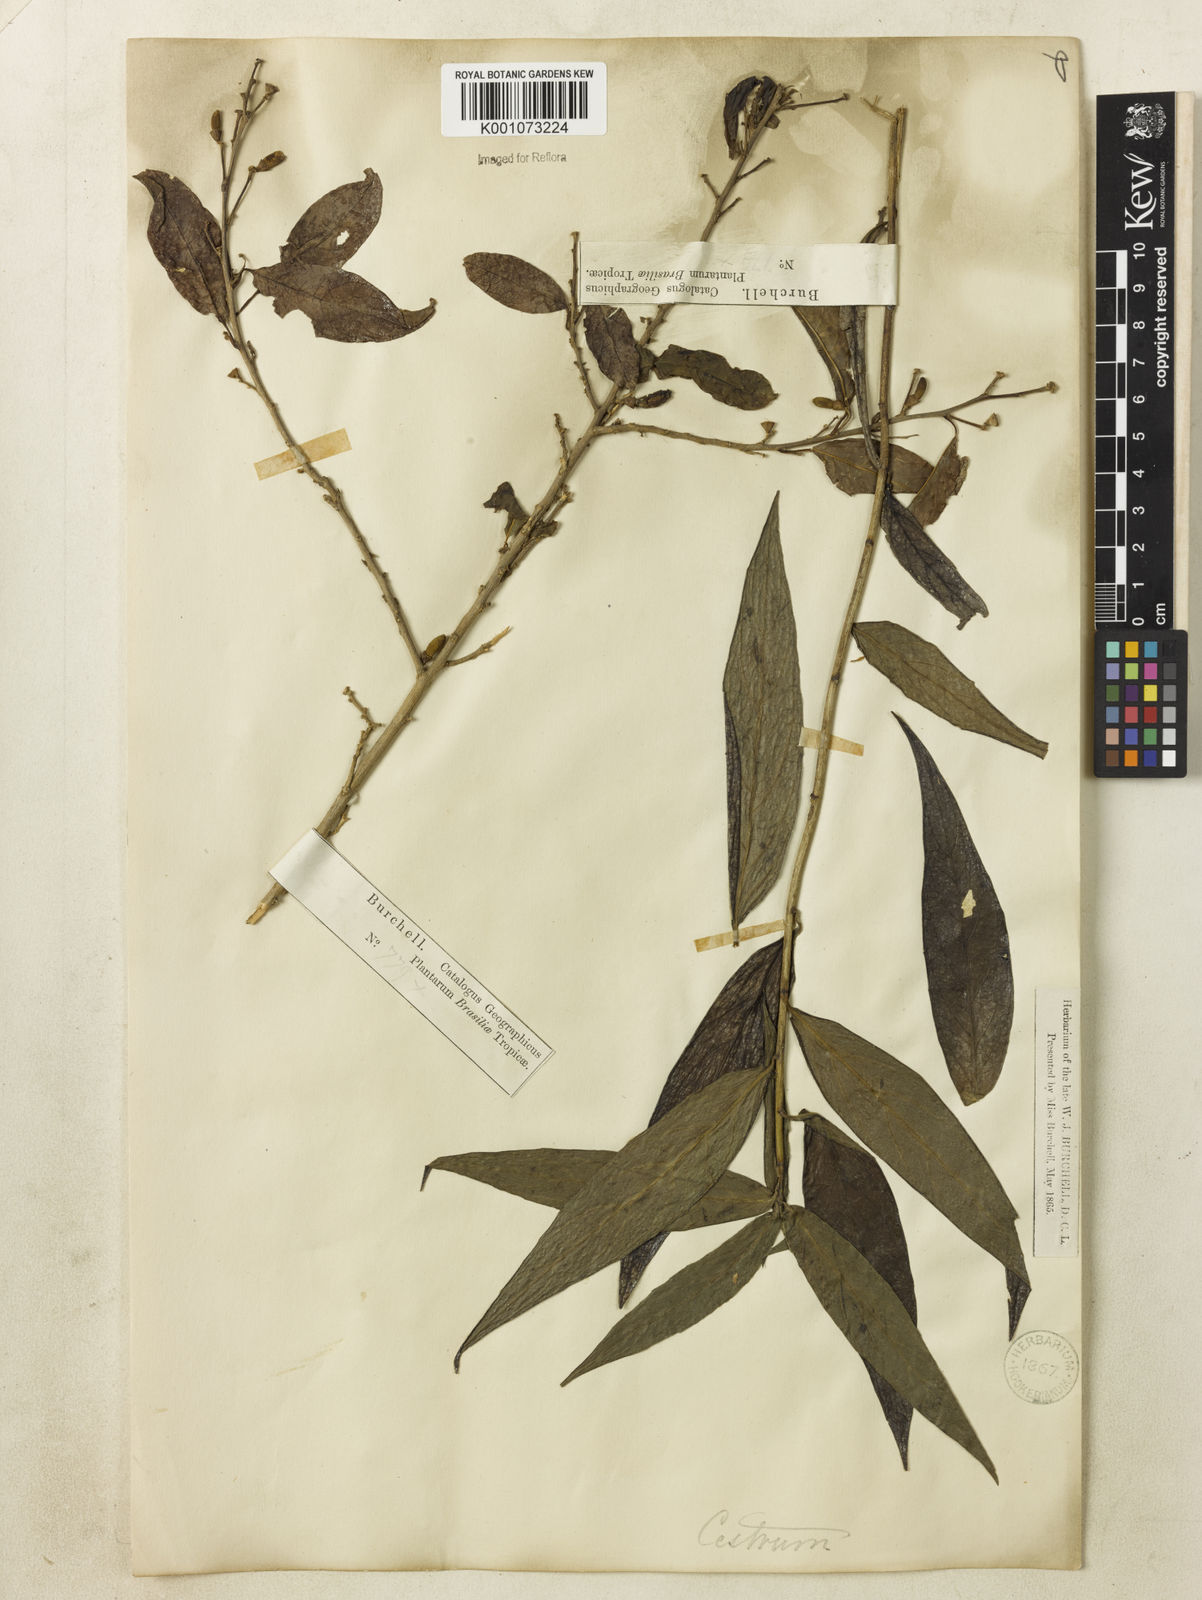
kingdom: Plantae
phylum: Tracheophyta
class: Magnoliopsida
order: Solanales
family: Solanaceae
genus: Cestrum
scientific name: Cestrum
